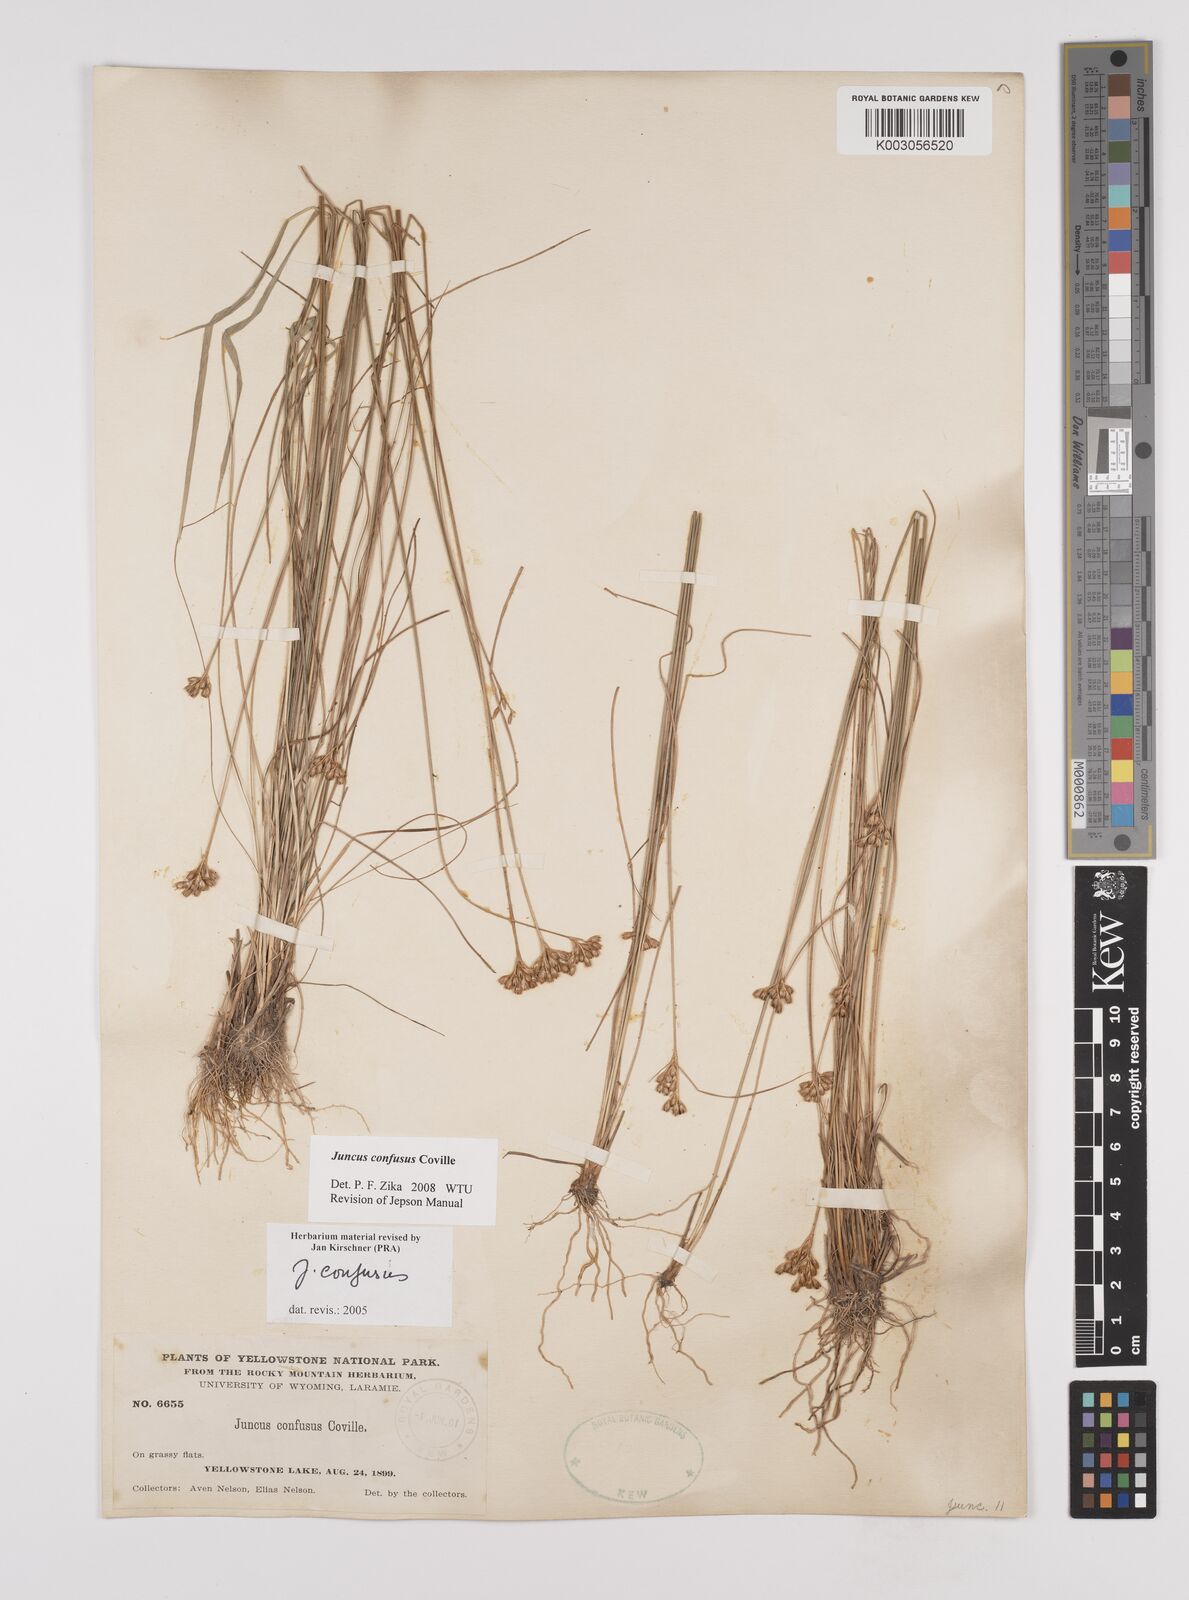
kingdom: Plantae
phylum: Tracheophyta
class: Liliopsida
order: Poales
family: Juncaceae
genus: Juncus
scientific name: Juncus confusus
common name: Colorado rush
